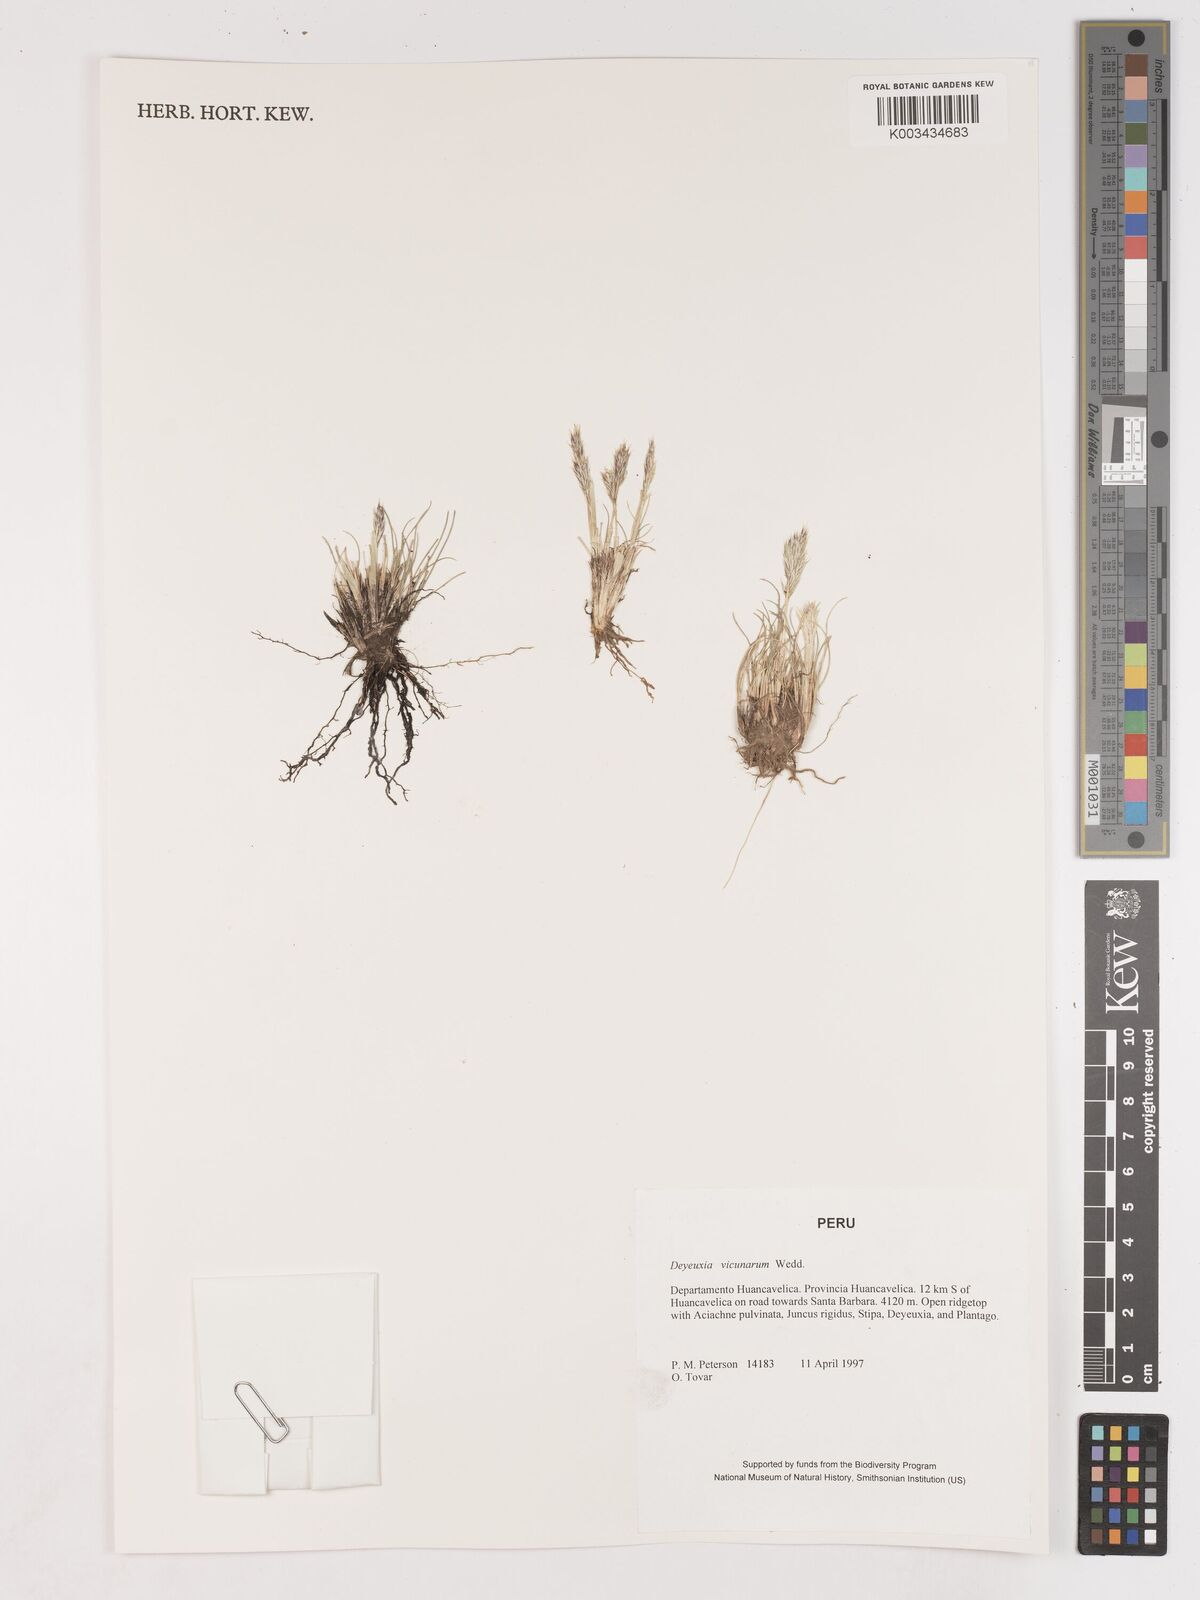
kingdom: Plantae
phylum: Tracheophyta
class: Liliopsida
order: Poales
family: Poaceae
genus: Cinnagrostis
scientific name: Cinnagrostis vicunarum
